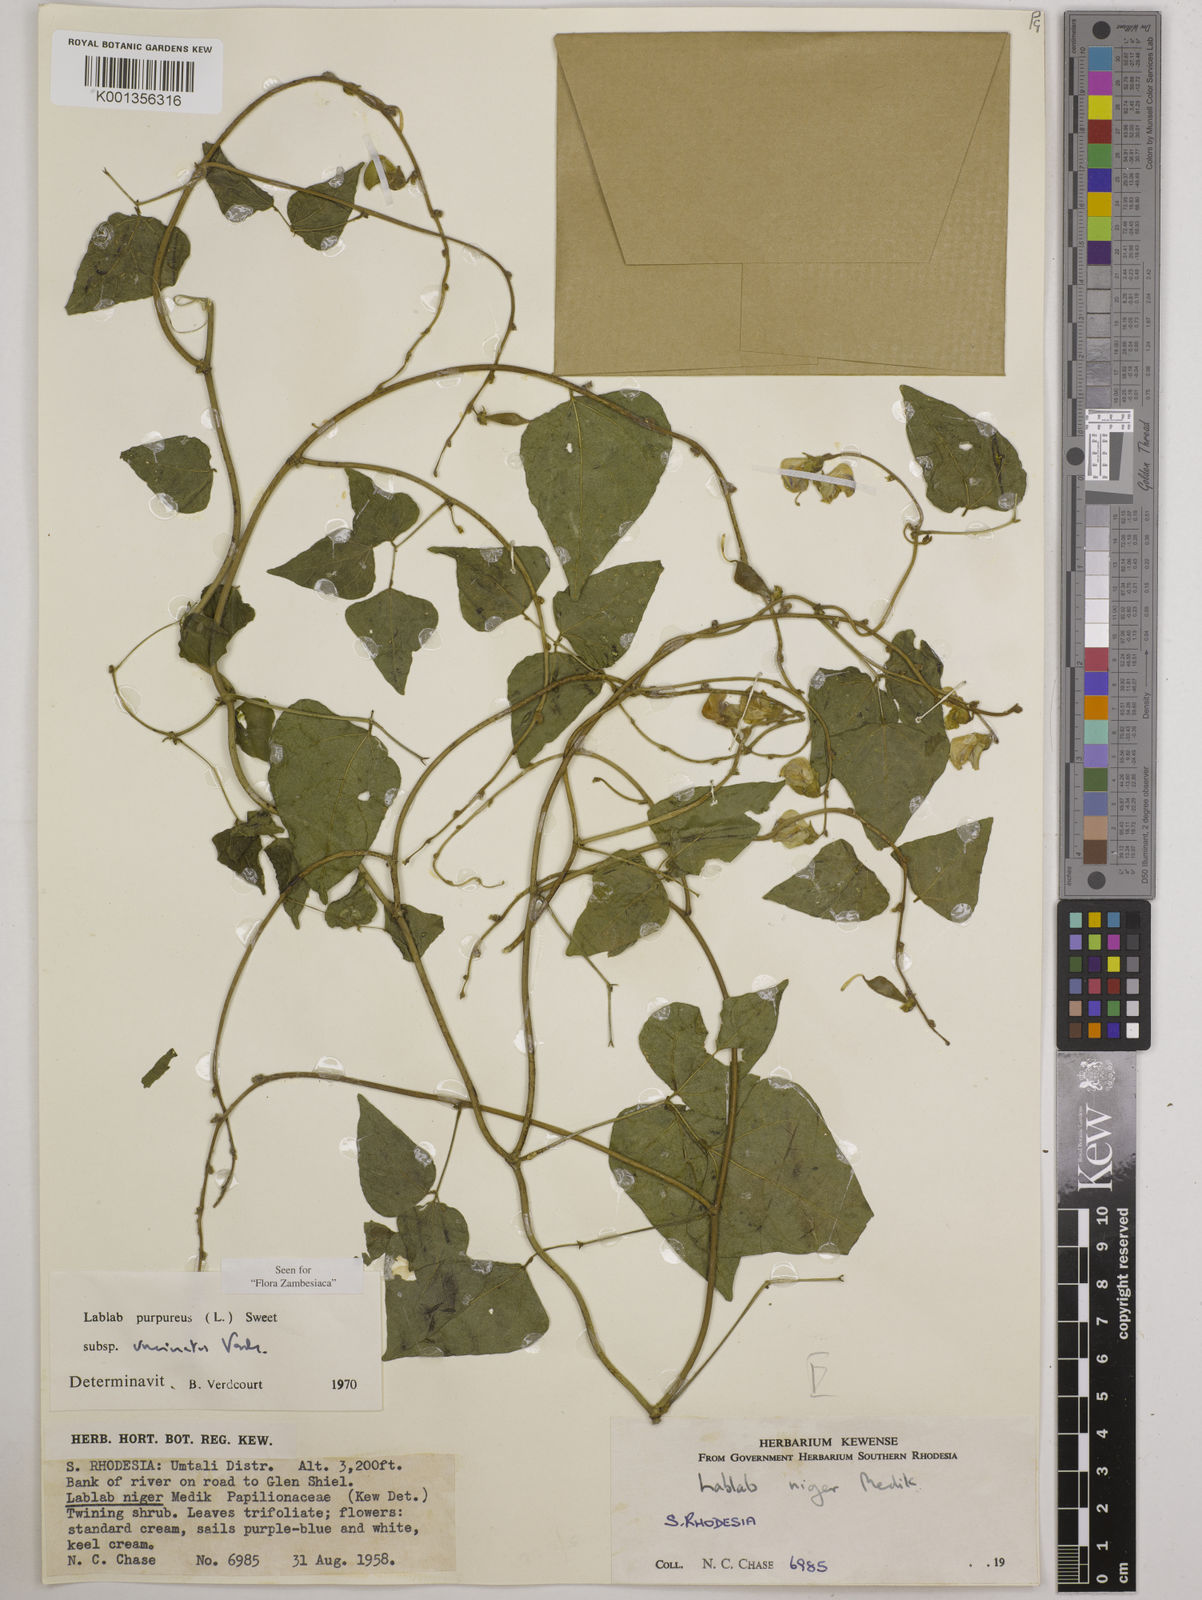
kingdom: Plantae
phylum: Tracheophyta
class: Magnoliopsida
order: Fabales
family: Fabaceae
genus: Lablab
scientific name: Lablab purpureus
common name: Lablab-bean
